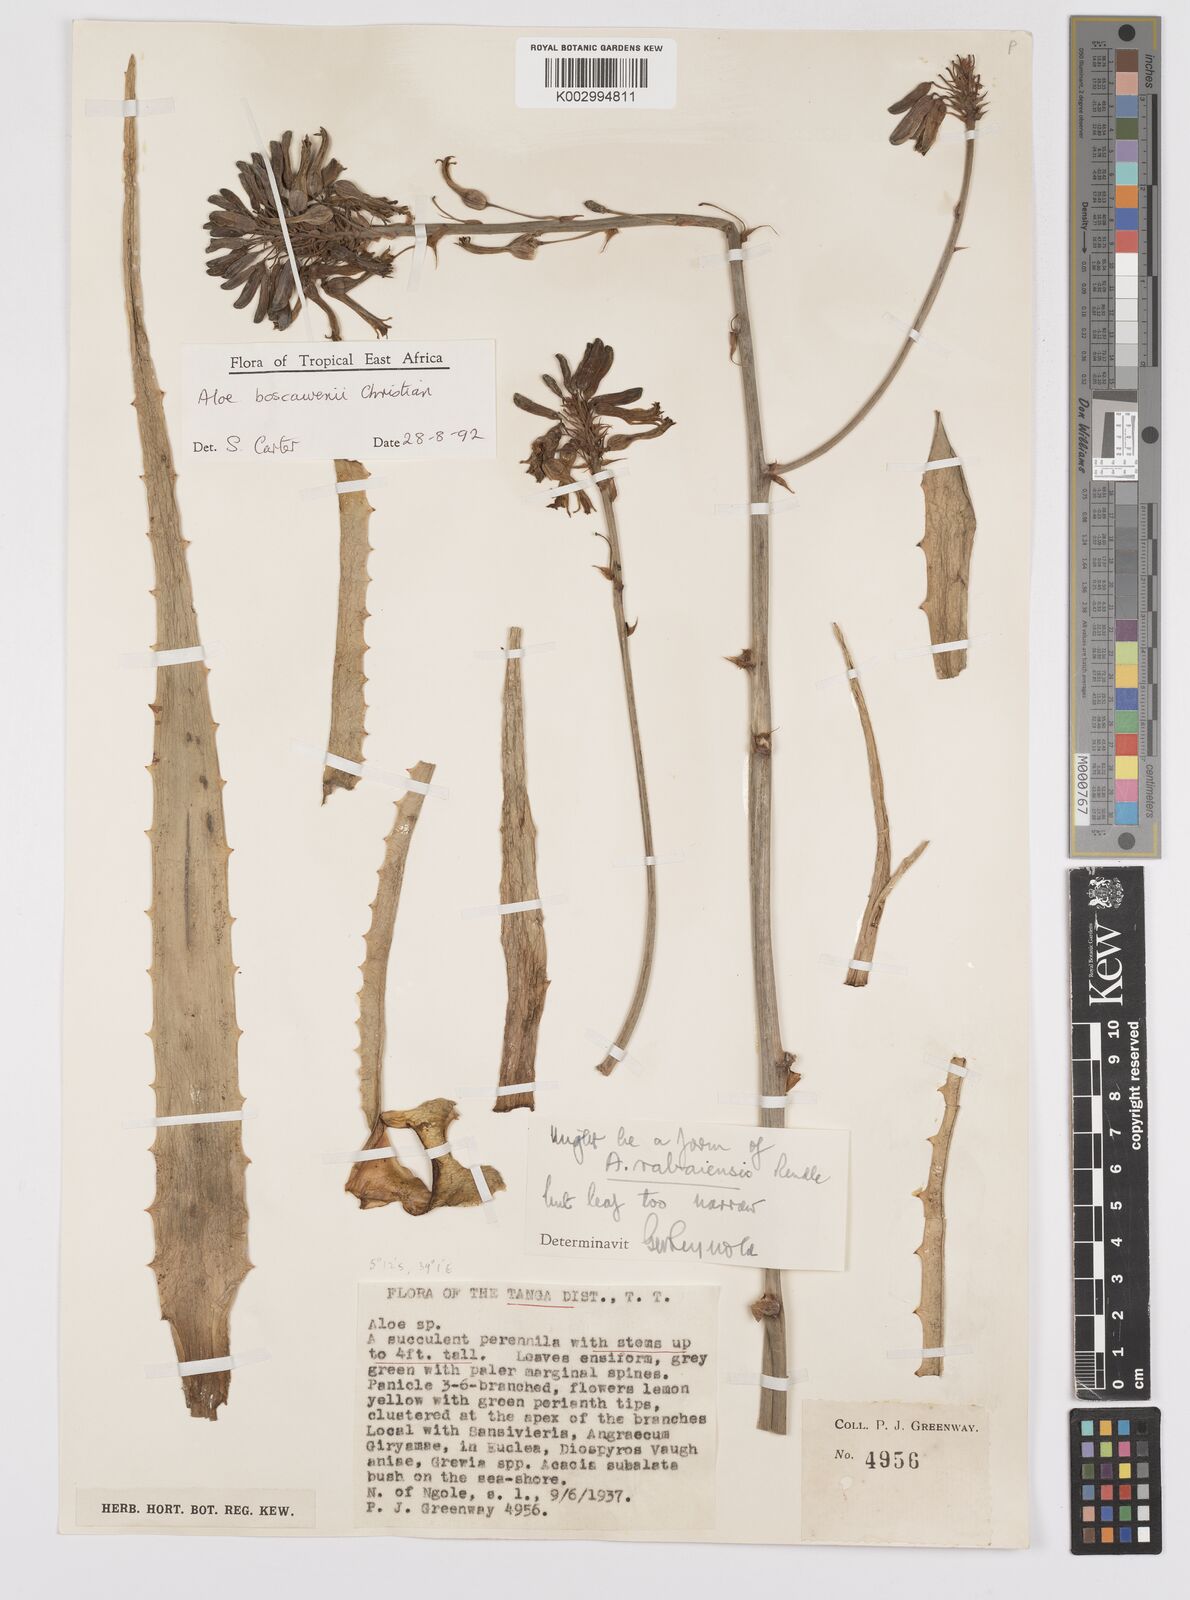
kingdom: Plantae
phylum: Tracheophyta
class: Liliopsida
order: Asparagales
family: Asphodelaceae
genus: Aloe
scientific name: Aloe boscawenii
